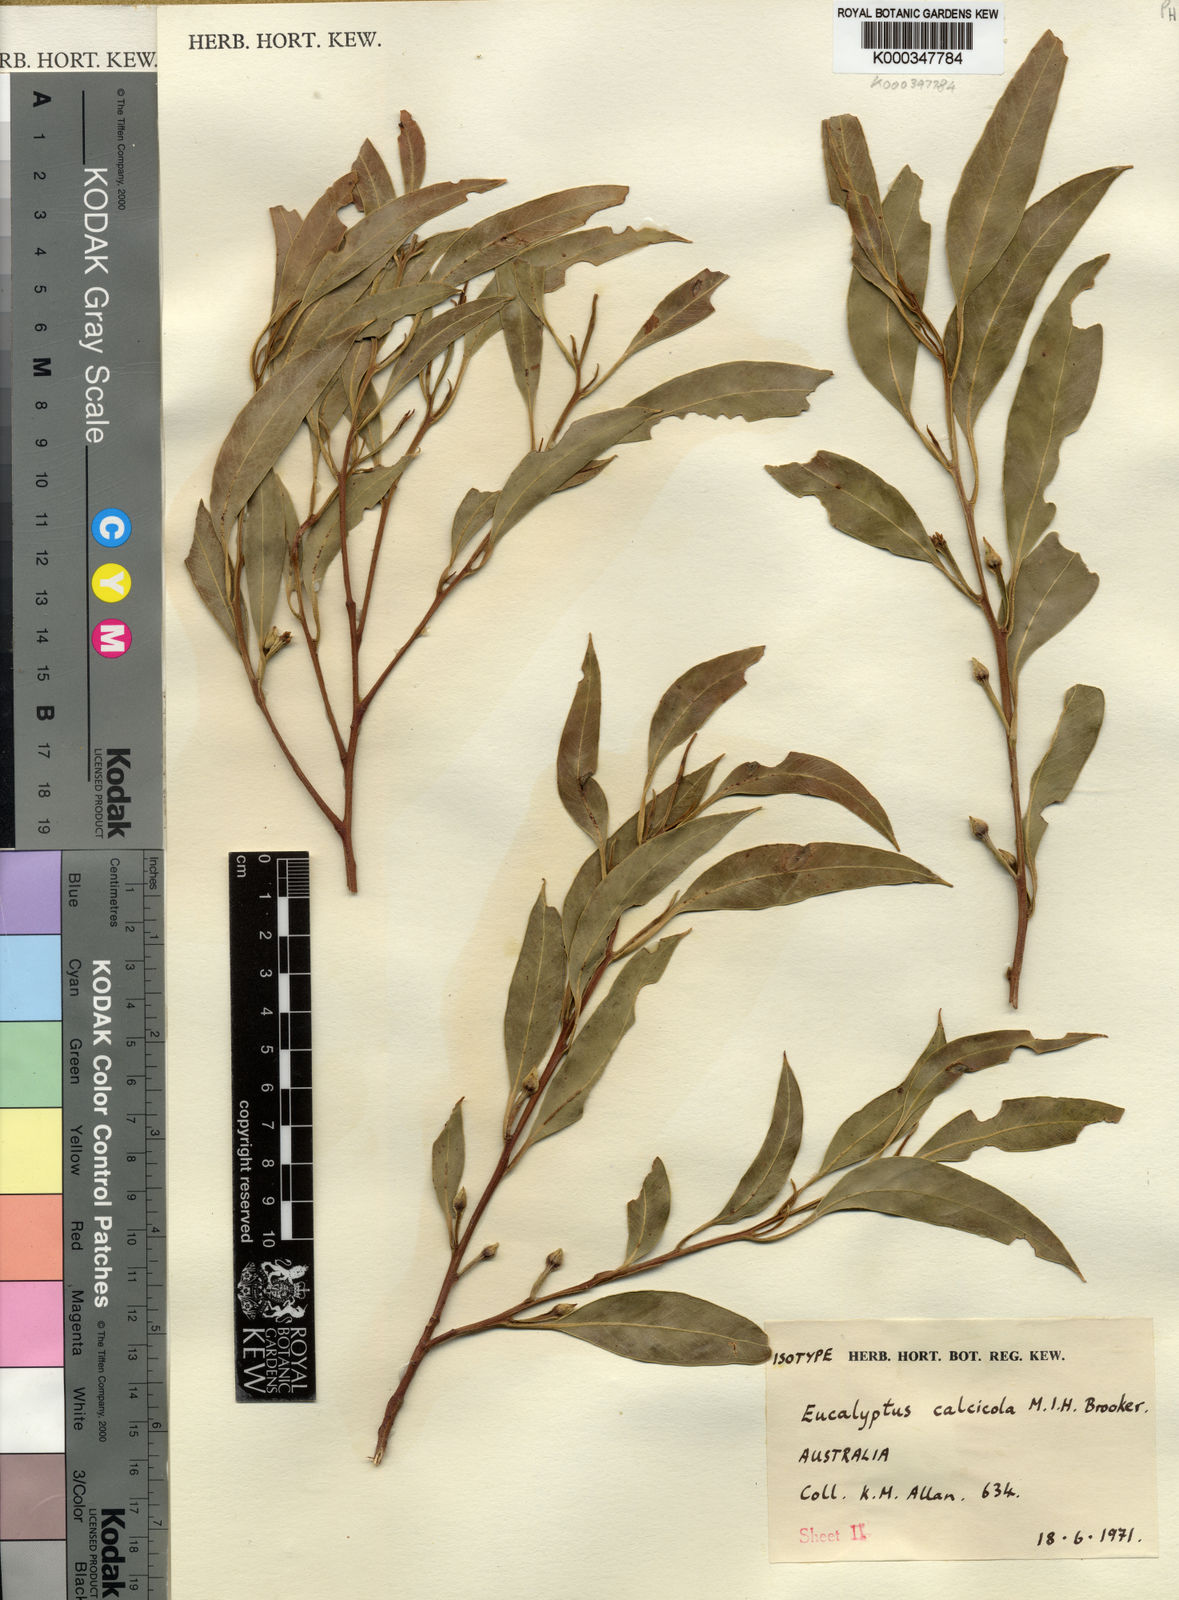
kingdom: Plantae
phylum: Tracheophyta
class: Magnoliopsida
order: Myrtales
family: Myrtaceae
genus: Eucalyptus
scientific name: Eucalyptus calcicola
